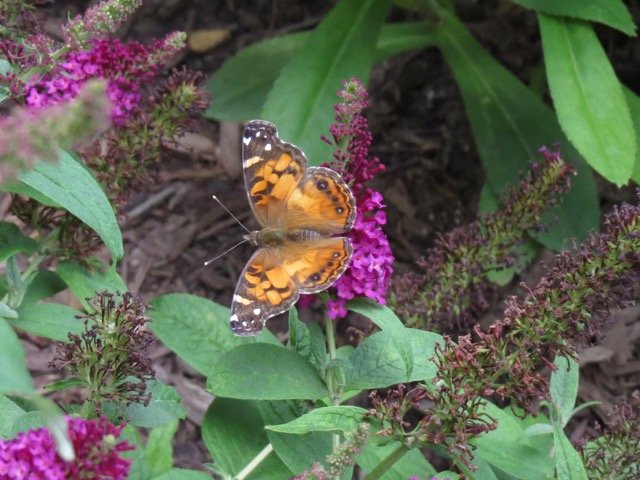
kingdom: Animalia
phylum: Arthropoda
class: Insecta
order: Lepidoptera
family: Nymphalidae
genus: Vanessa
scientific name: Vanessa virginiensis
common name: American Lady
